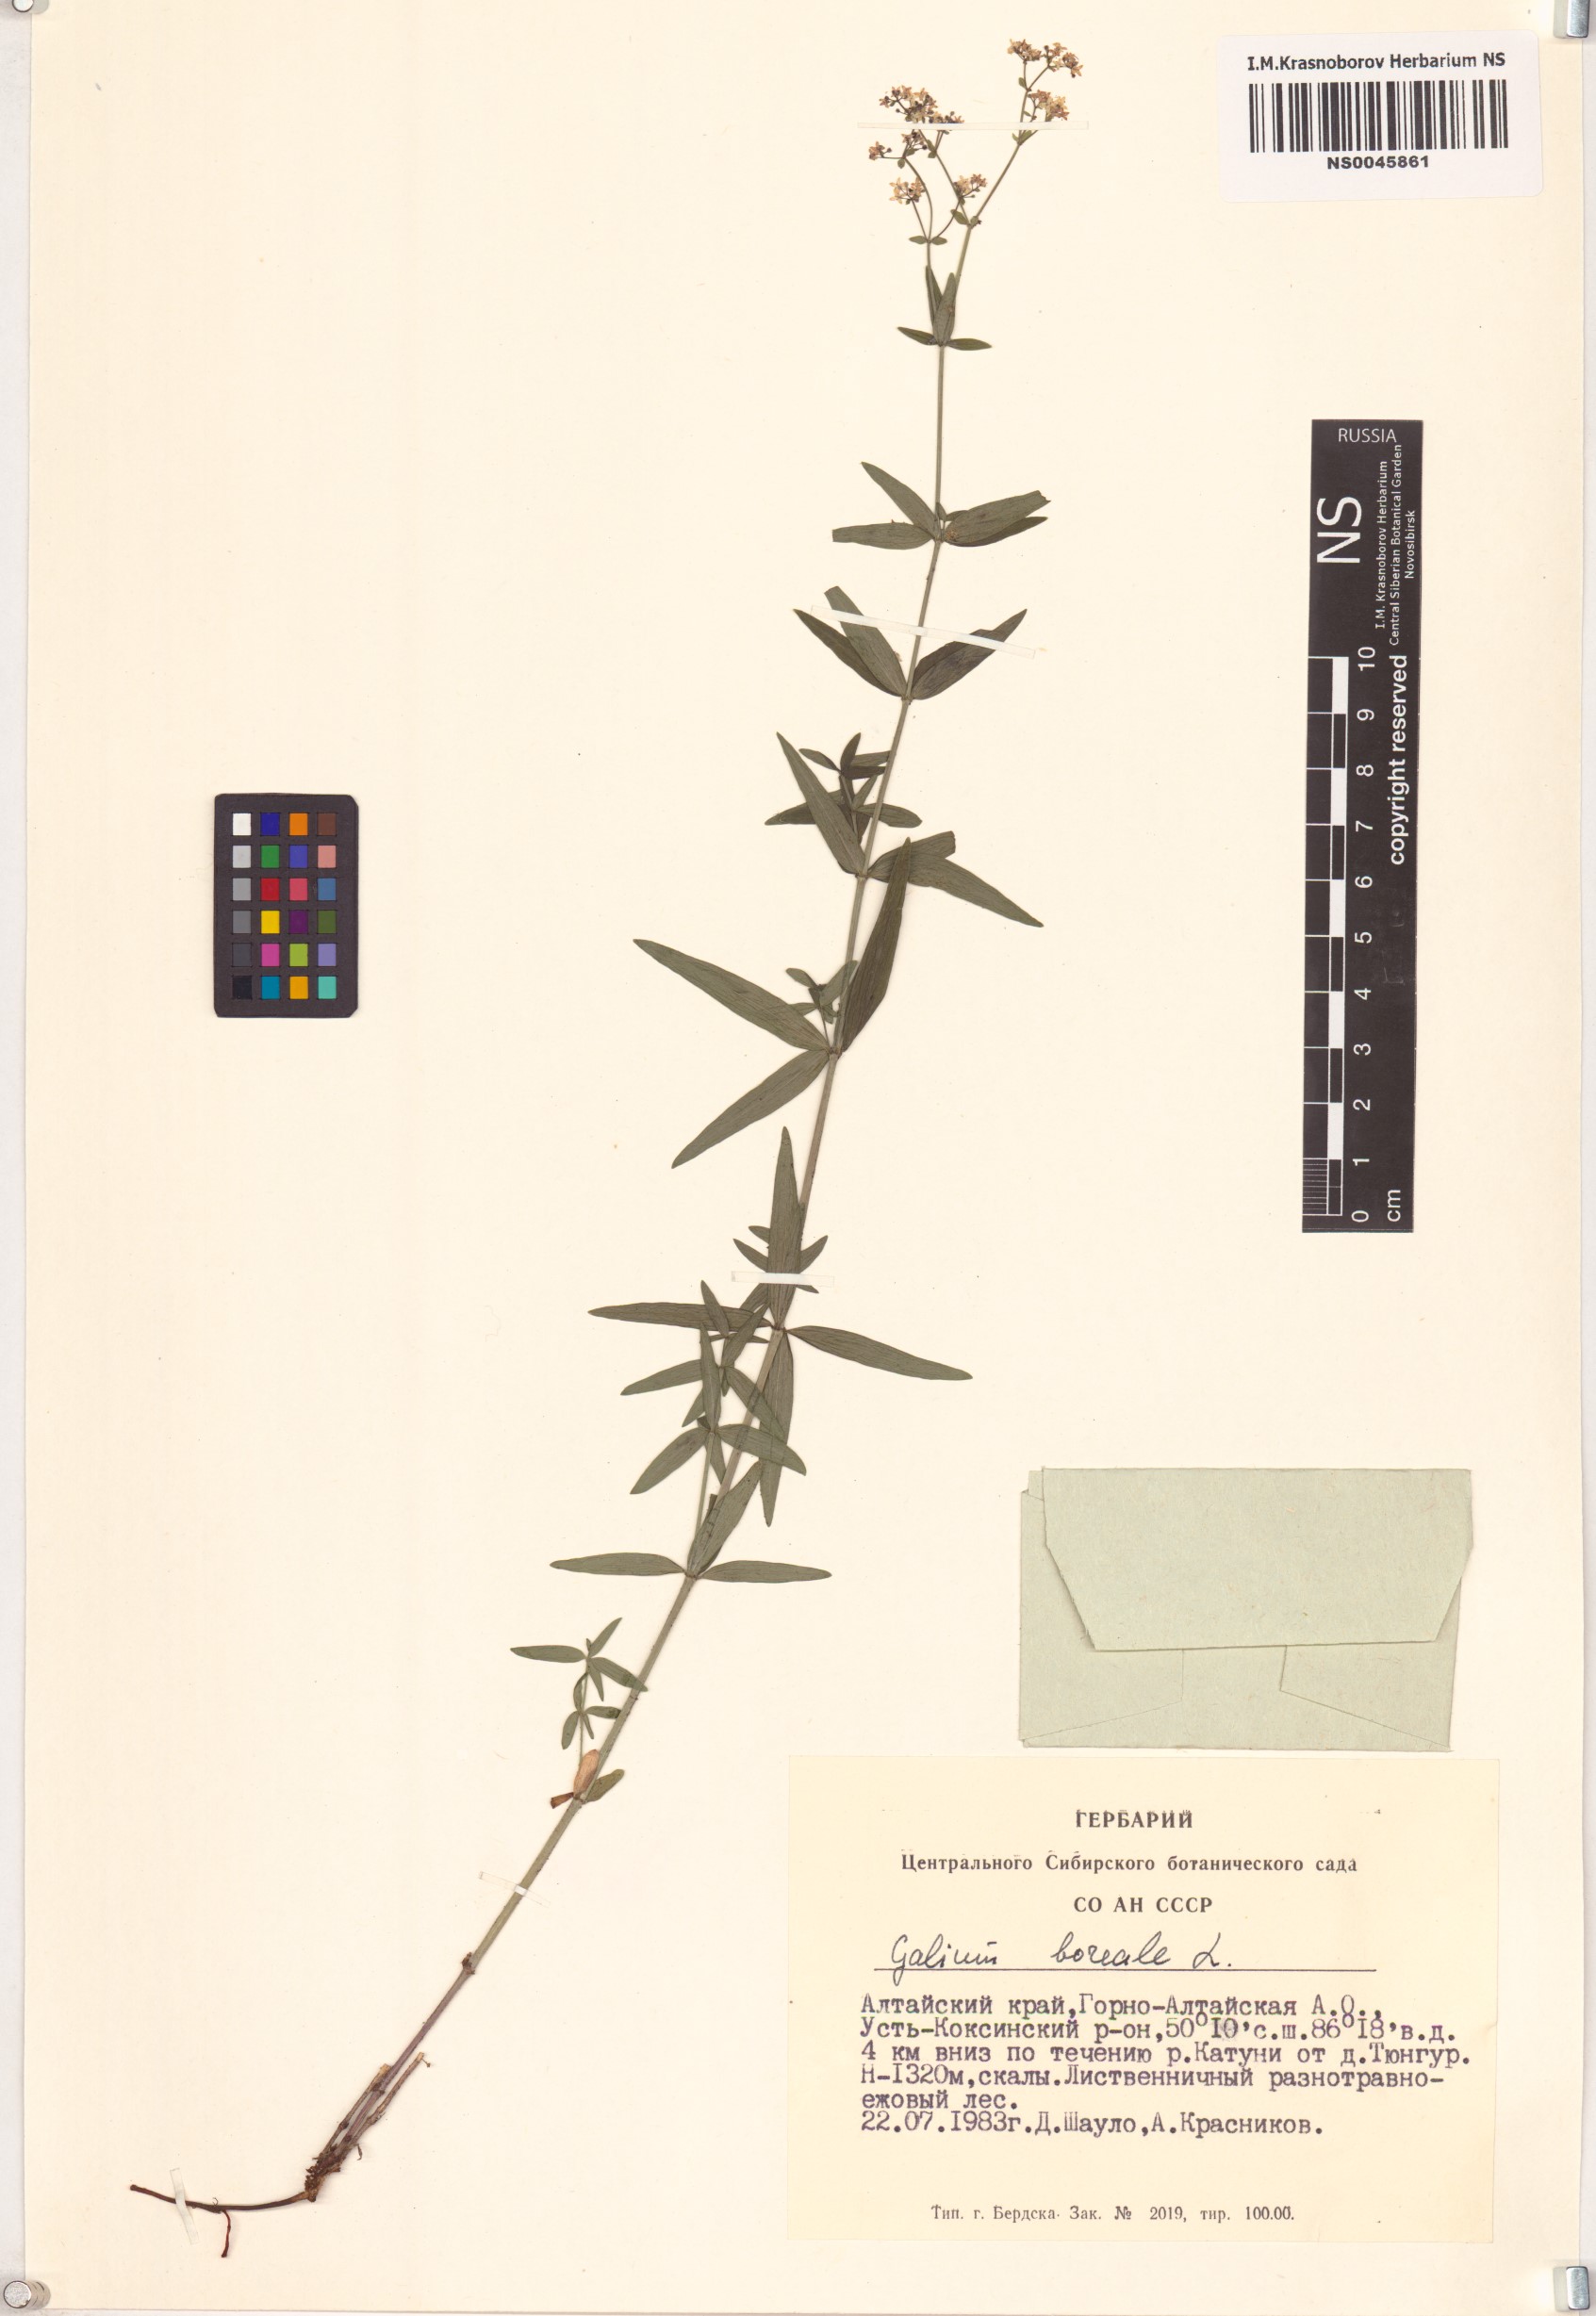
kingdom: Plantae
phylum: Tracheophyta
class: Magnoliopsida
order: Gentianales
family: Rubiaceae
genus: Galium
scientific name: Galium boreale
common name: Northern bedstraw
